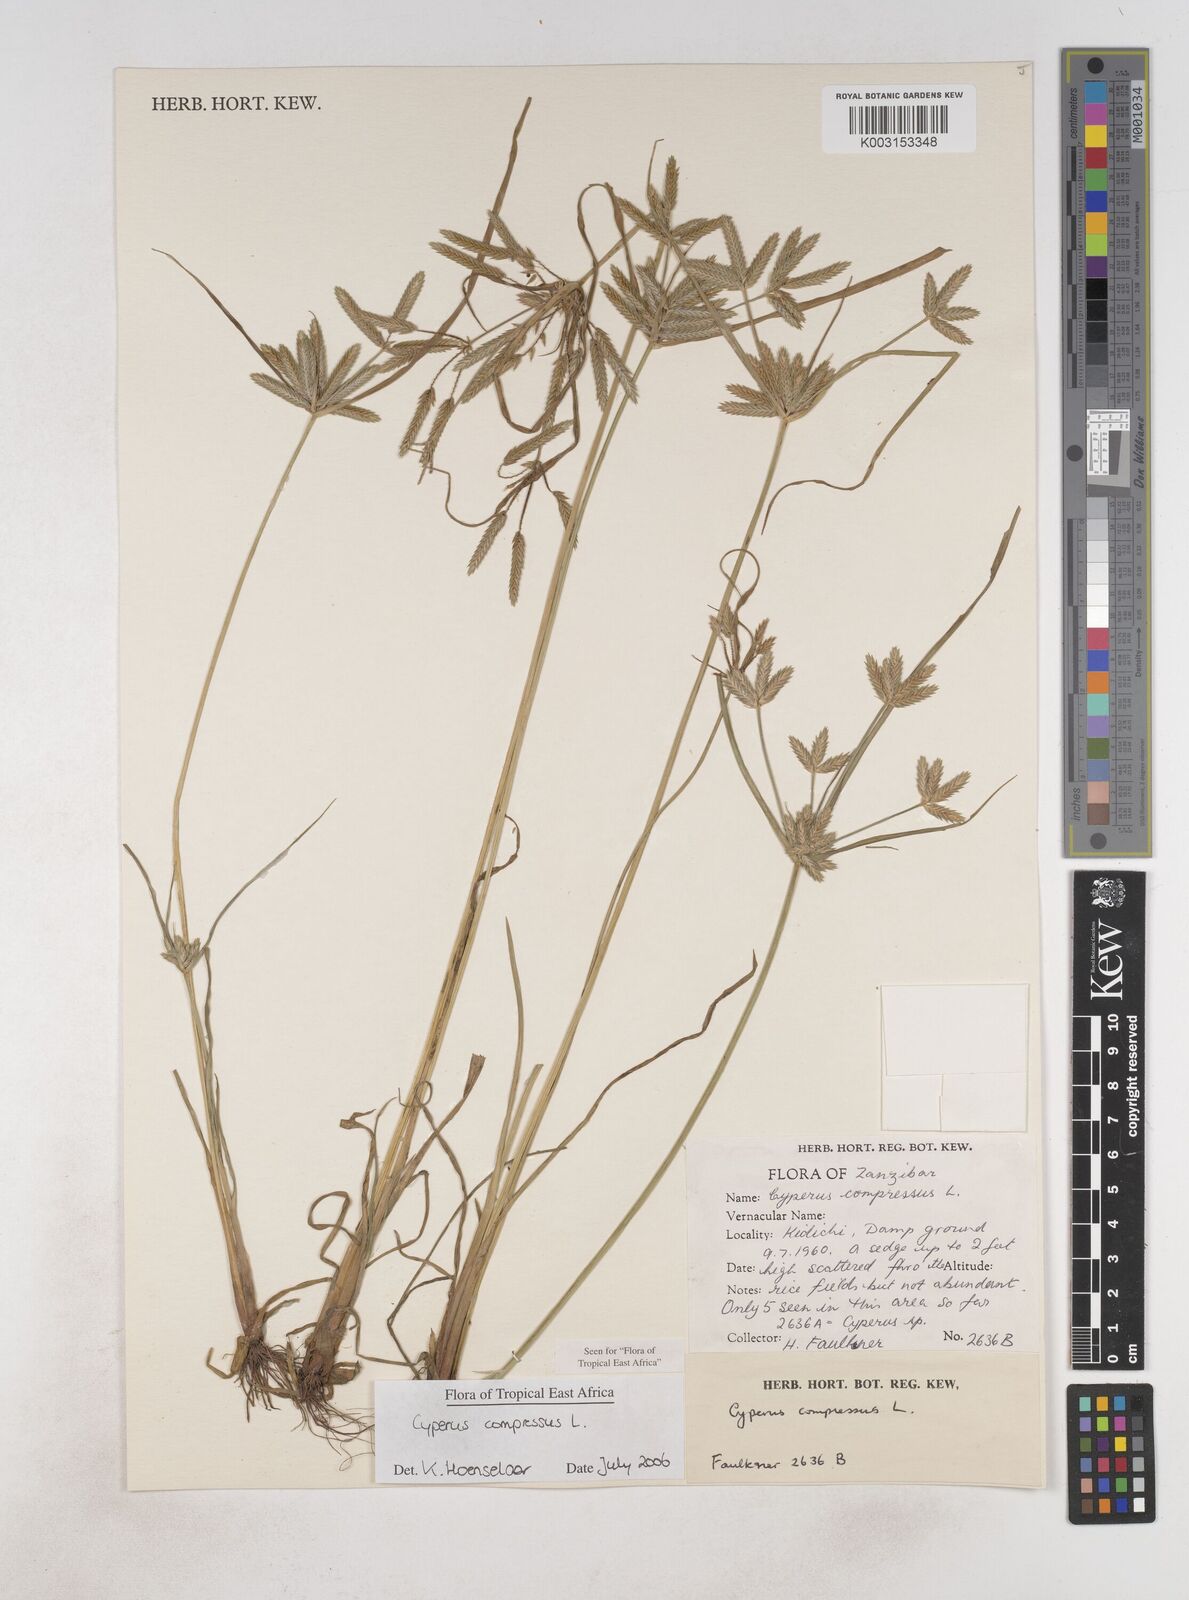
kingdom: Plantae
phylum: Tracheophyta
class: Liliopsida
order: Poales
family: Cyperaceae
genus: Cyperus
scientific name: Cyperus compressus
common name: Poorland flatsedge
